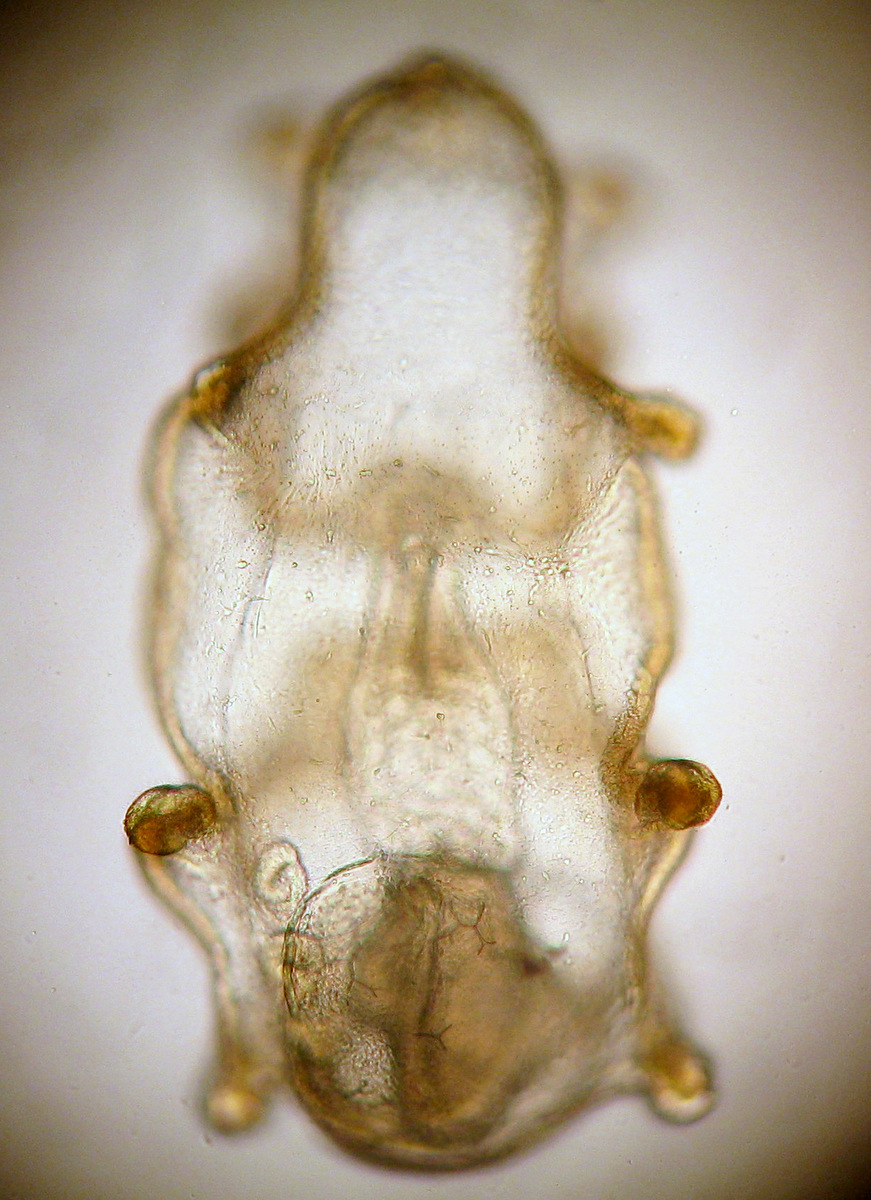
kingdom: Animalia
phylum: Echinodermata
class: Asteroidea
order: Forcipulatida
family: Asteriidae
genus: Asterias
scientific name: Asterias rubens
